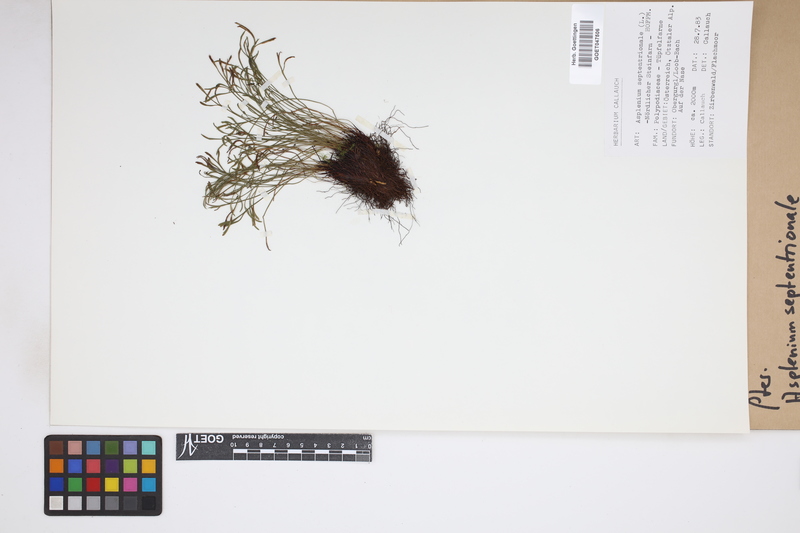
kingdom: Plantae
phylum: Tracheophyta
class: Polypodiopsida
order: Polypodiales
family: Aspleniaceae
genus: Asplenium
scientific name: Asplenium septentrionale
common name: Forked spleenwort
